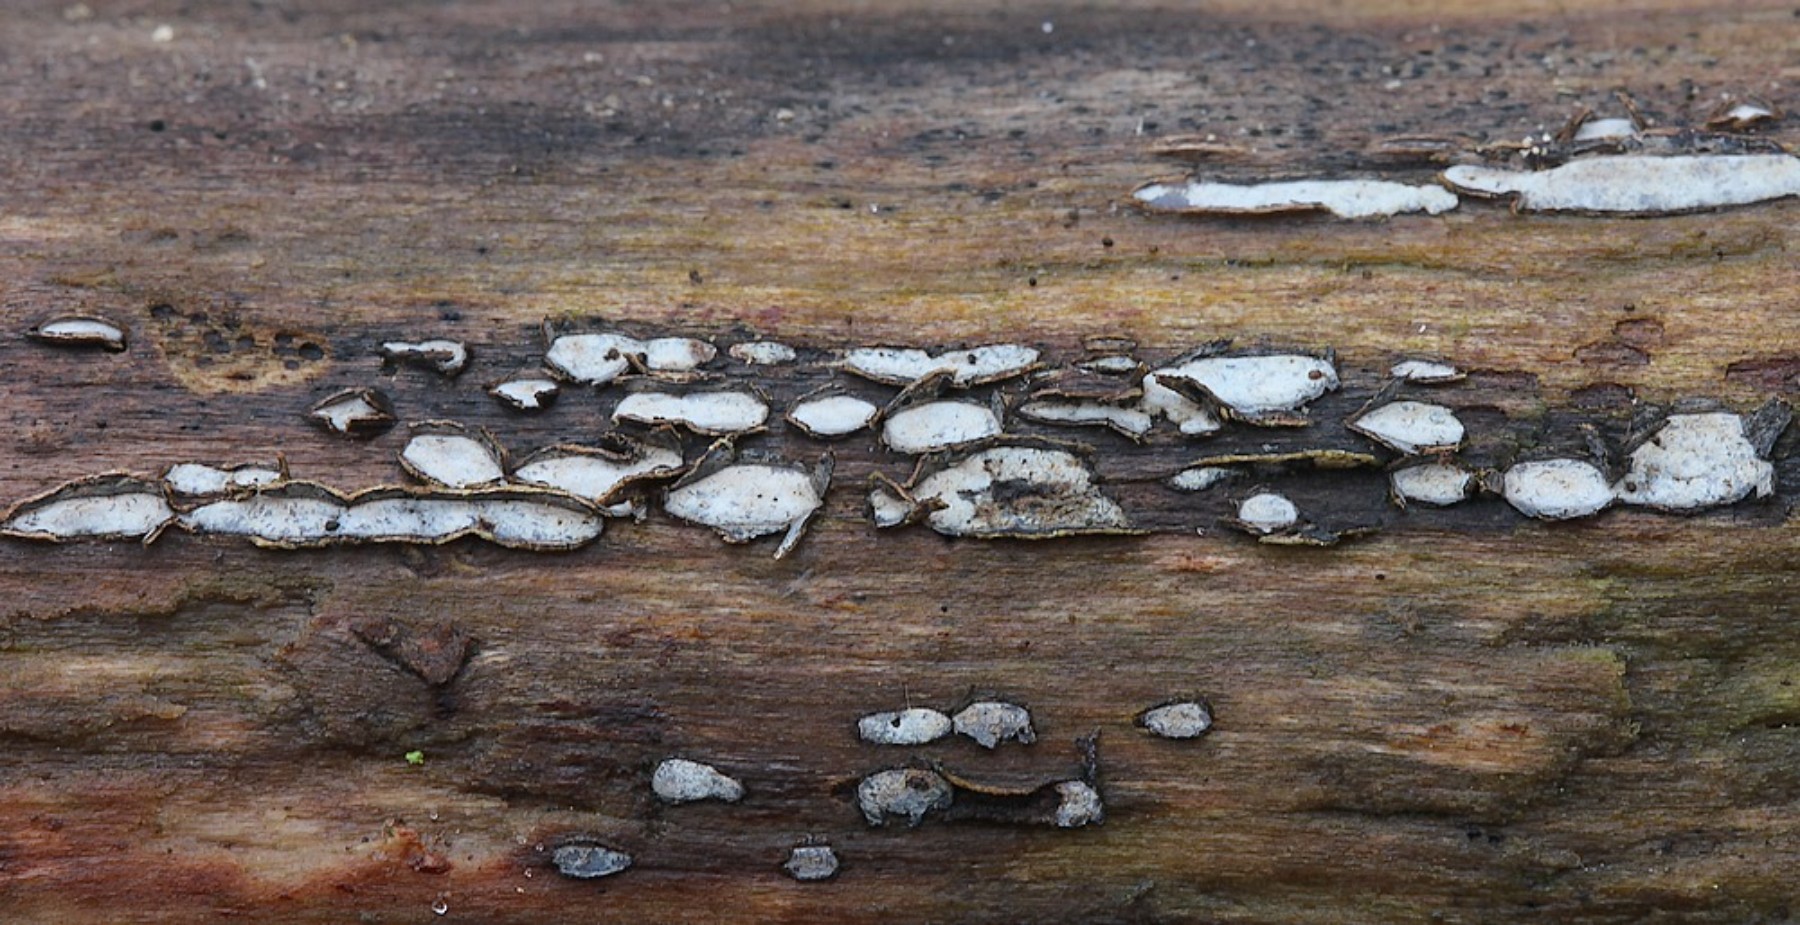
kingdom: Fungi
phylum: Ascomycota
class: Leotiomycetes
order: Chaetomellales
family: Marthamycetaceae
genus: Propolis
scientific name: Propolis farinosa
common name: almindelig vedsprængerskive
